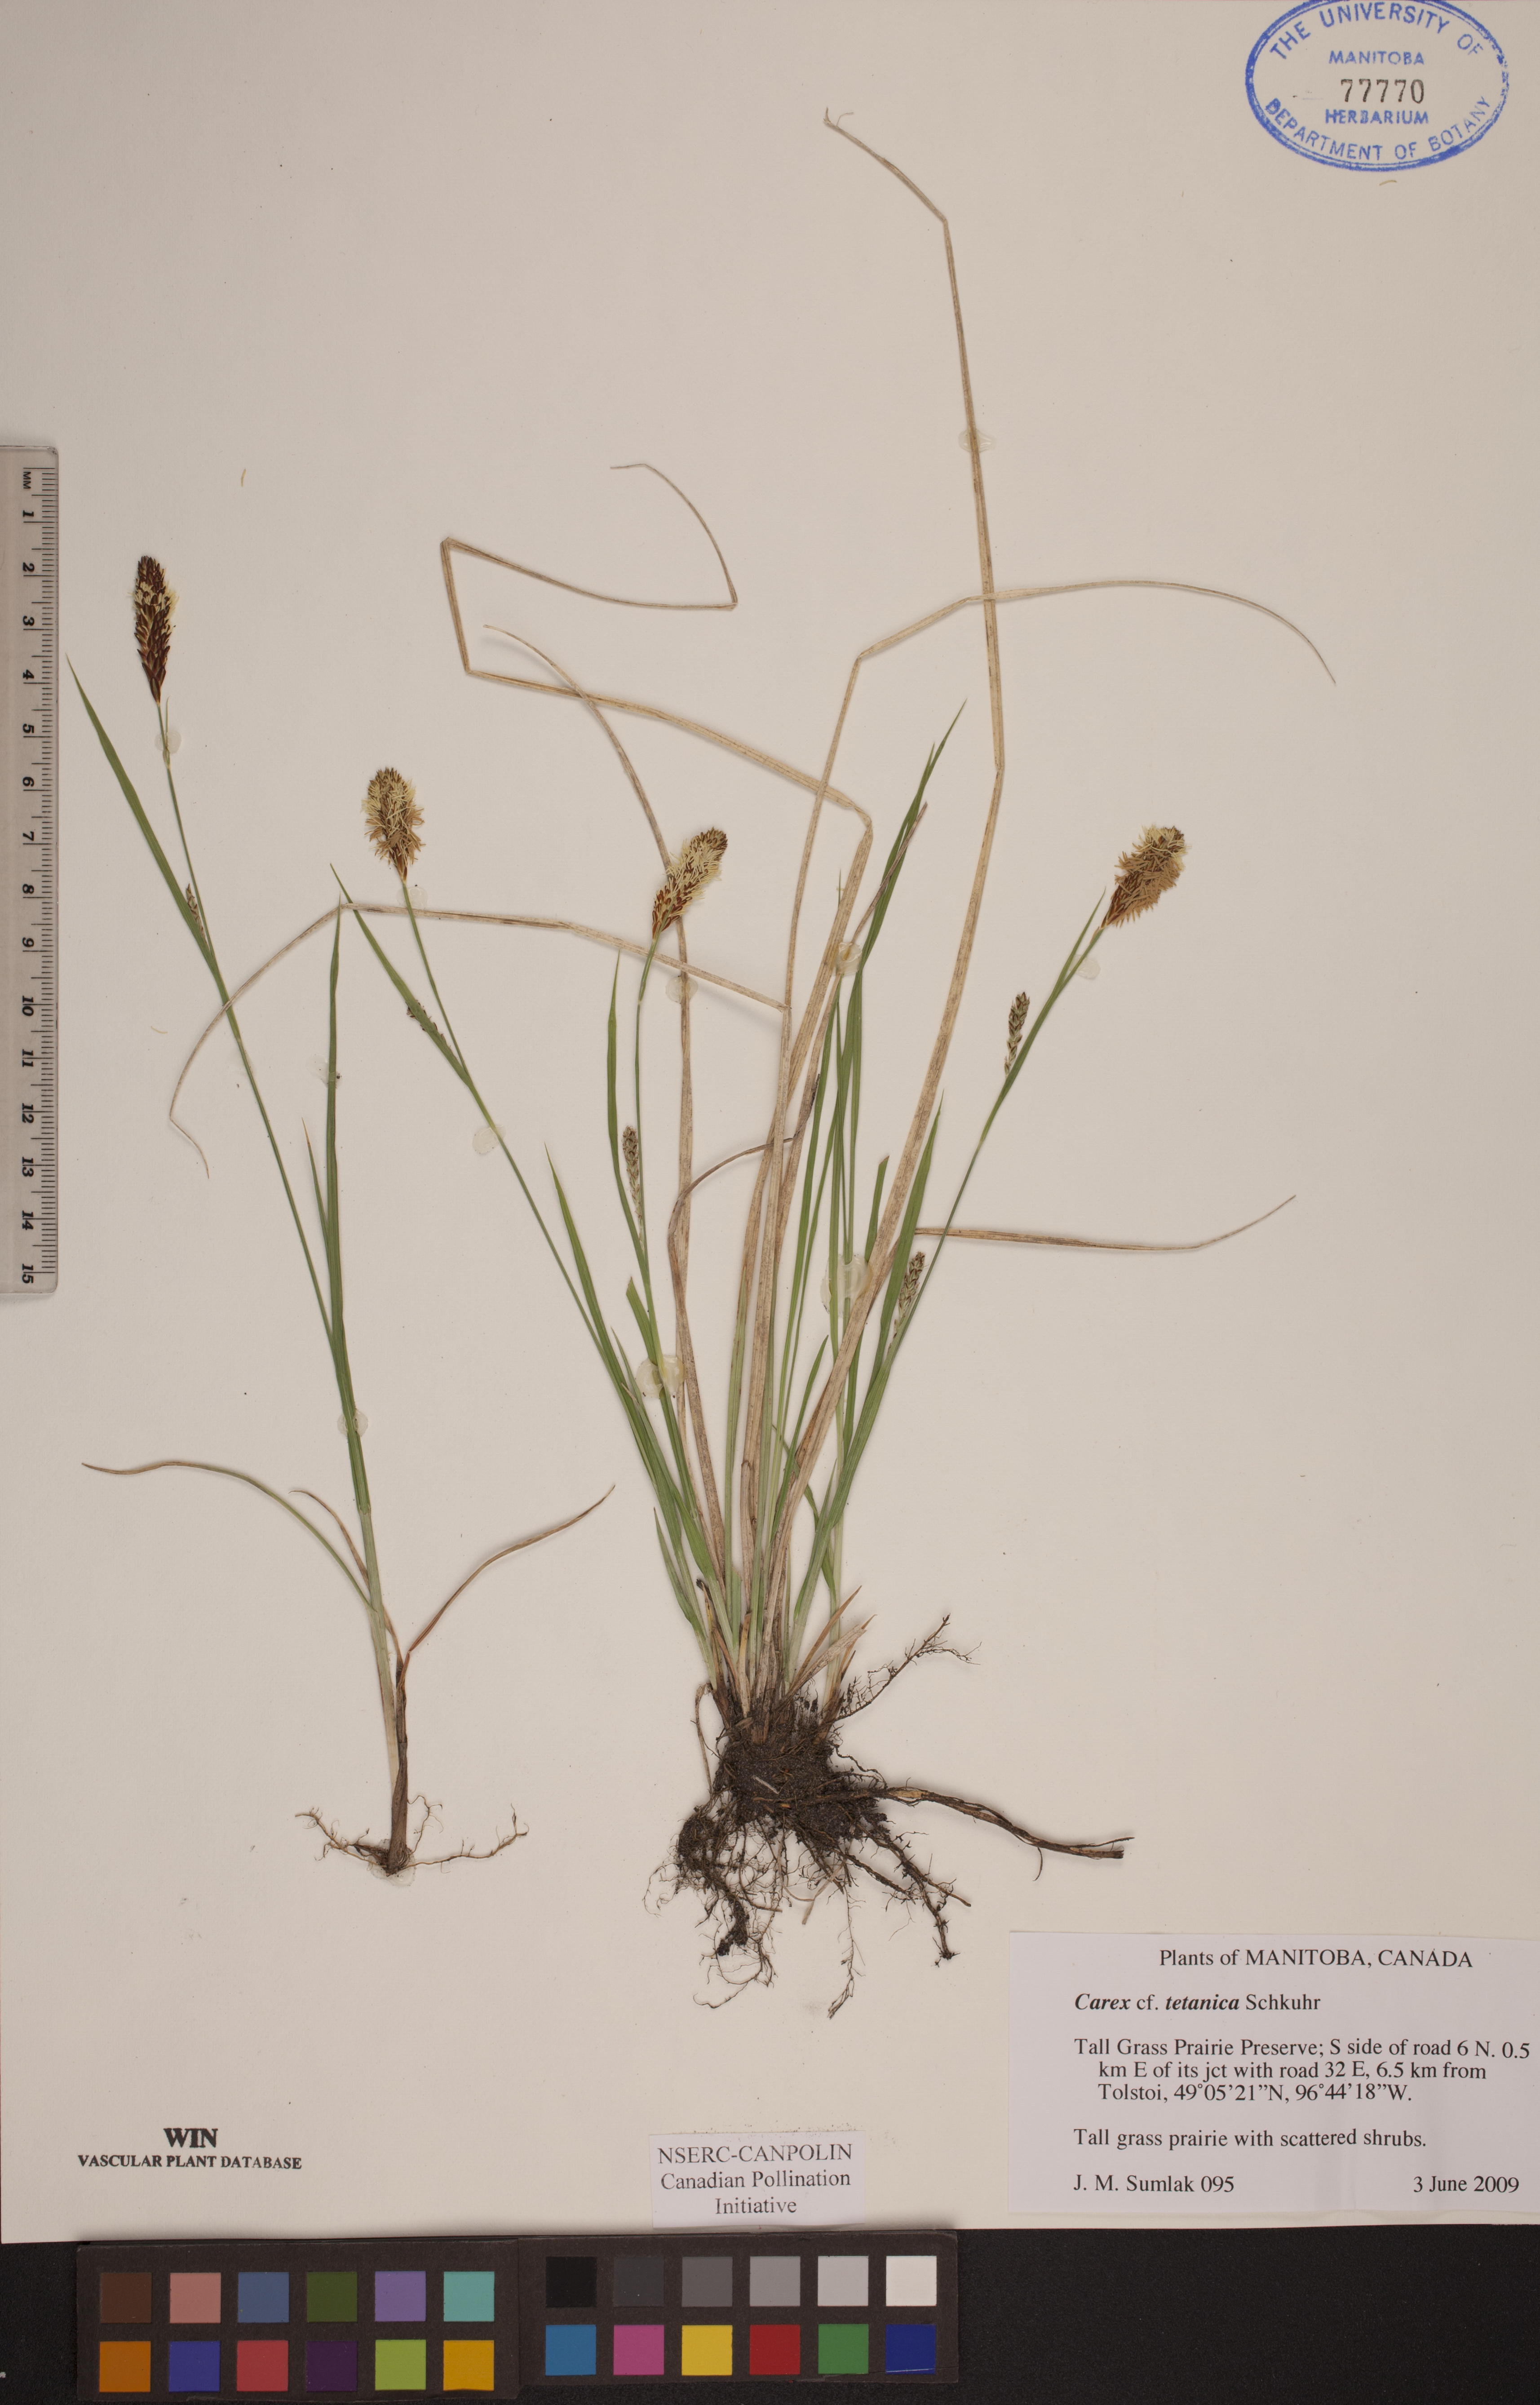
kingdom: Plantae
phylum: Tracheophyta
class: Liliopsida
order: Poales
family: Cyperaceae
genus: Carex
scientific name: Carex tetanica
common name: Rigid sedge
